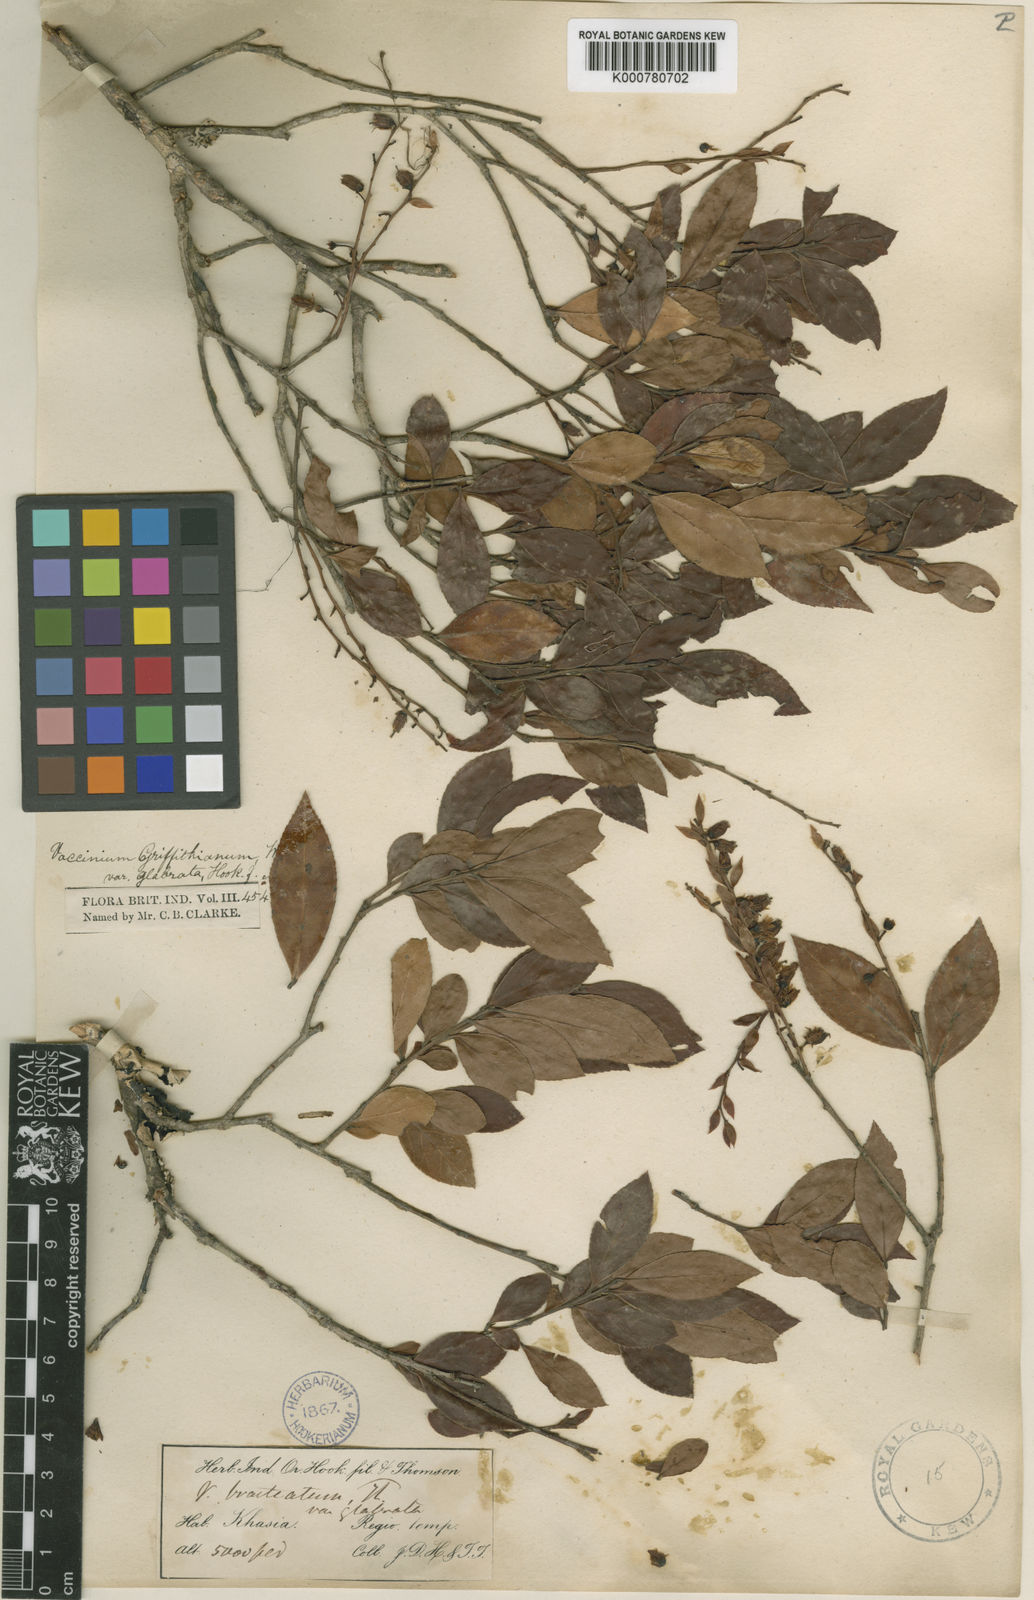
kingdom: Plantae
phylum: Tracheophyta
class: Magnoliopsida
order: Ericales
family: Ericaceae
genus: Vaccinium
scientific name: Vaccinium griffithianum
